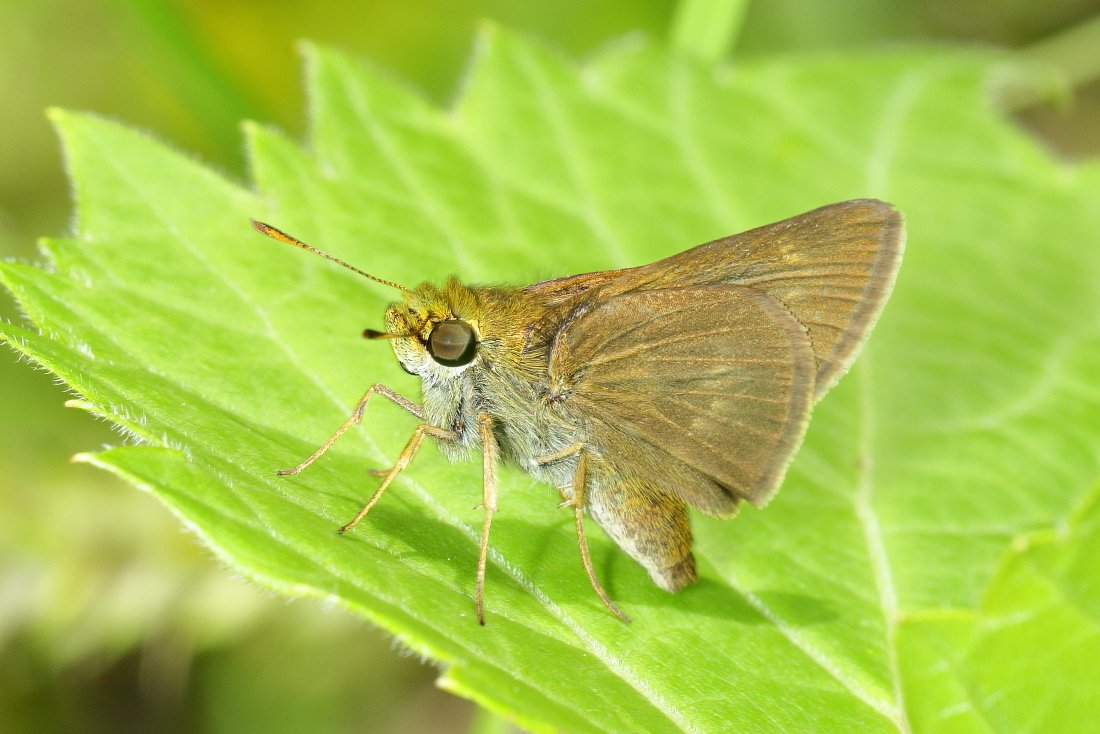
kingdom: Animalia
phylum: Arthropoda
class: Insecta
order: Lepidoptera
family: Hesperiidae
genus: Polites
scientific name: Polites
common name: Crossline Skipper
